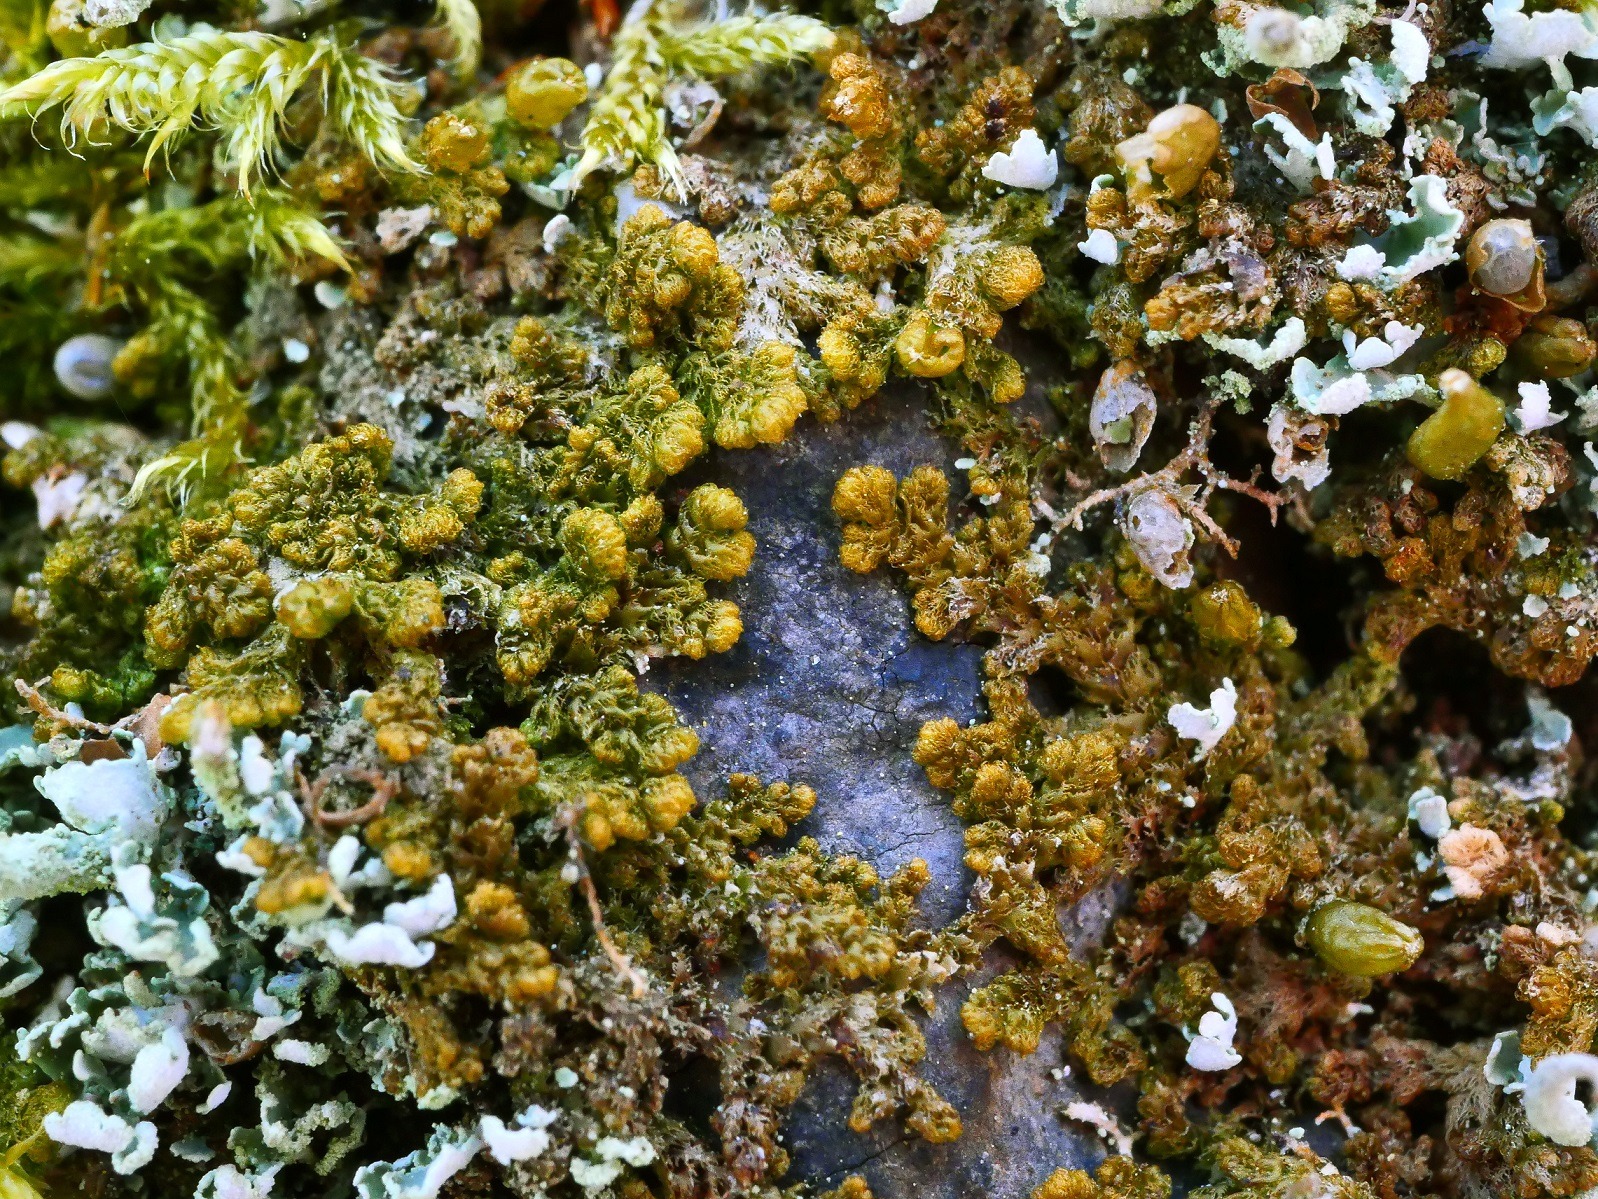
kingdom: Plantae
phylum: Marchantiophyta
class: Jungermanniopsida
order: Ptilidiales
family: Ptilidiaceae
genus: Ptilidium
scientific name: Ptilidium pulcherrimum
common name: Stub-frynsemos
